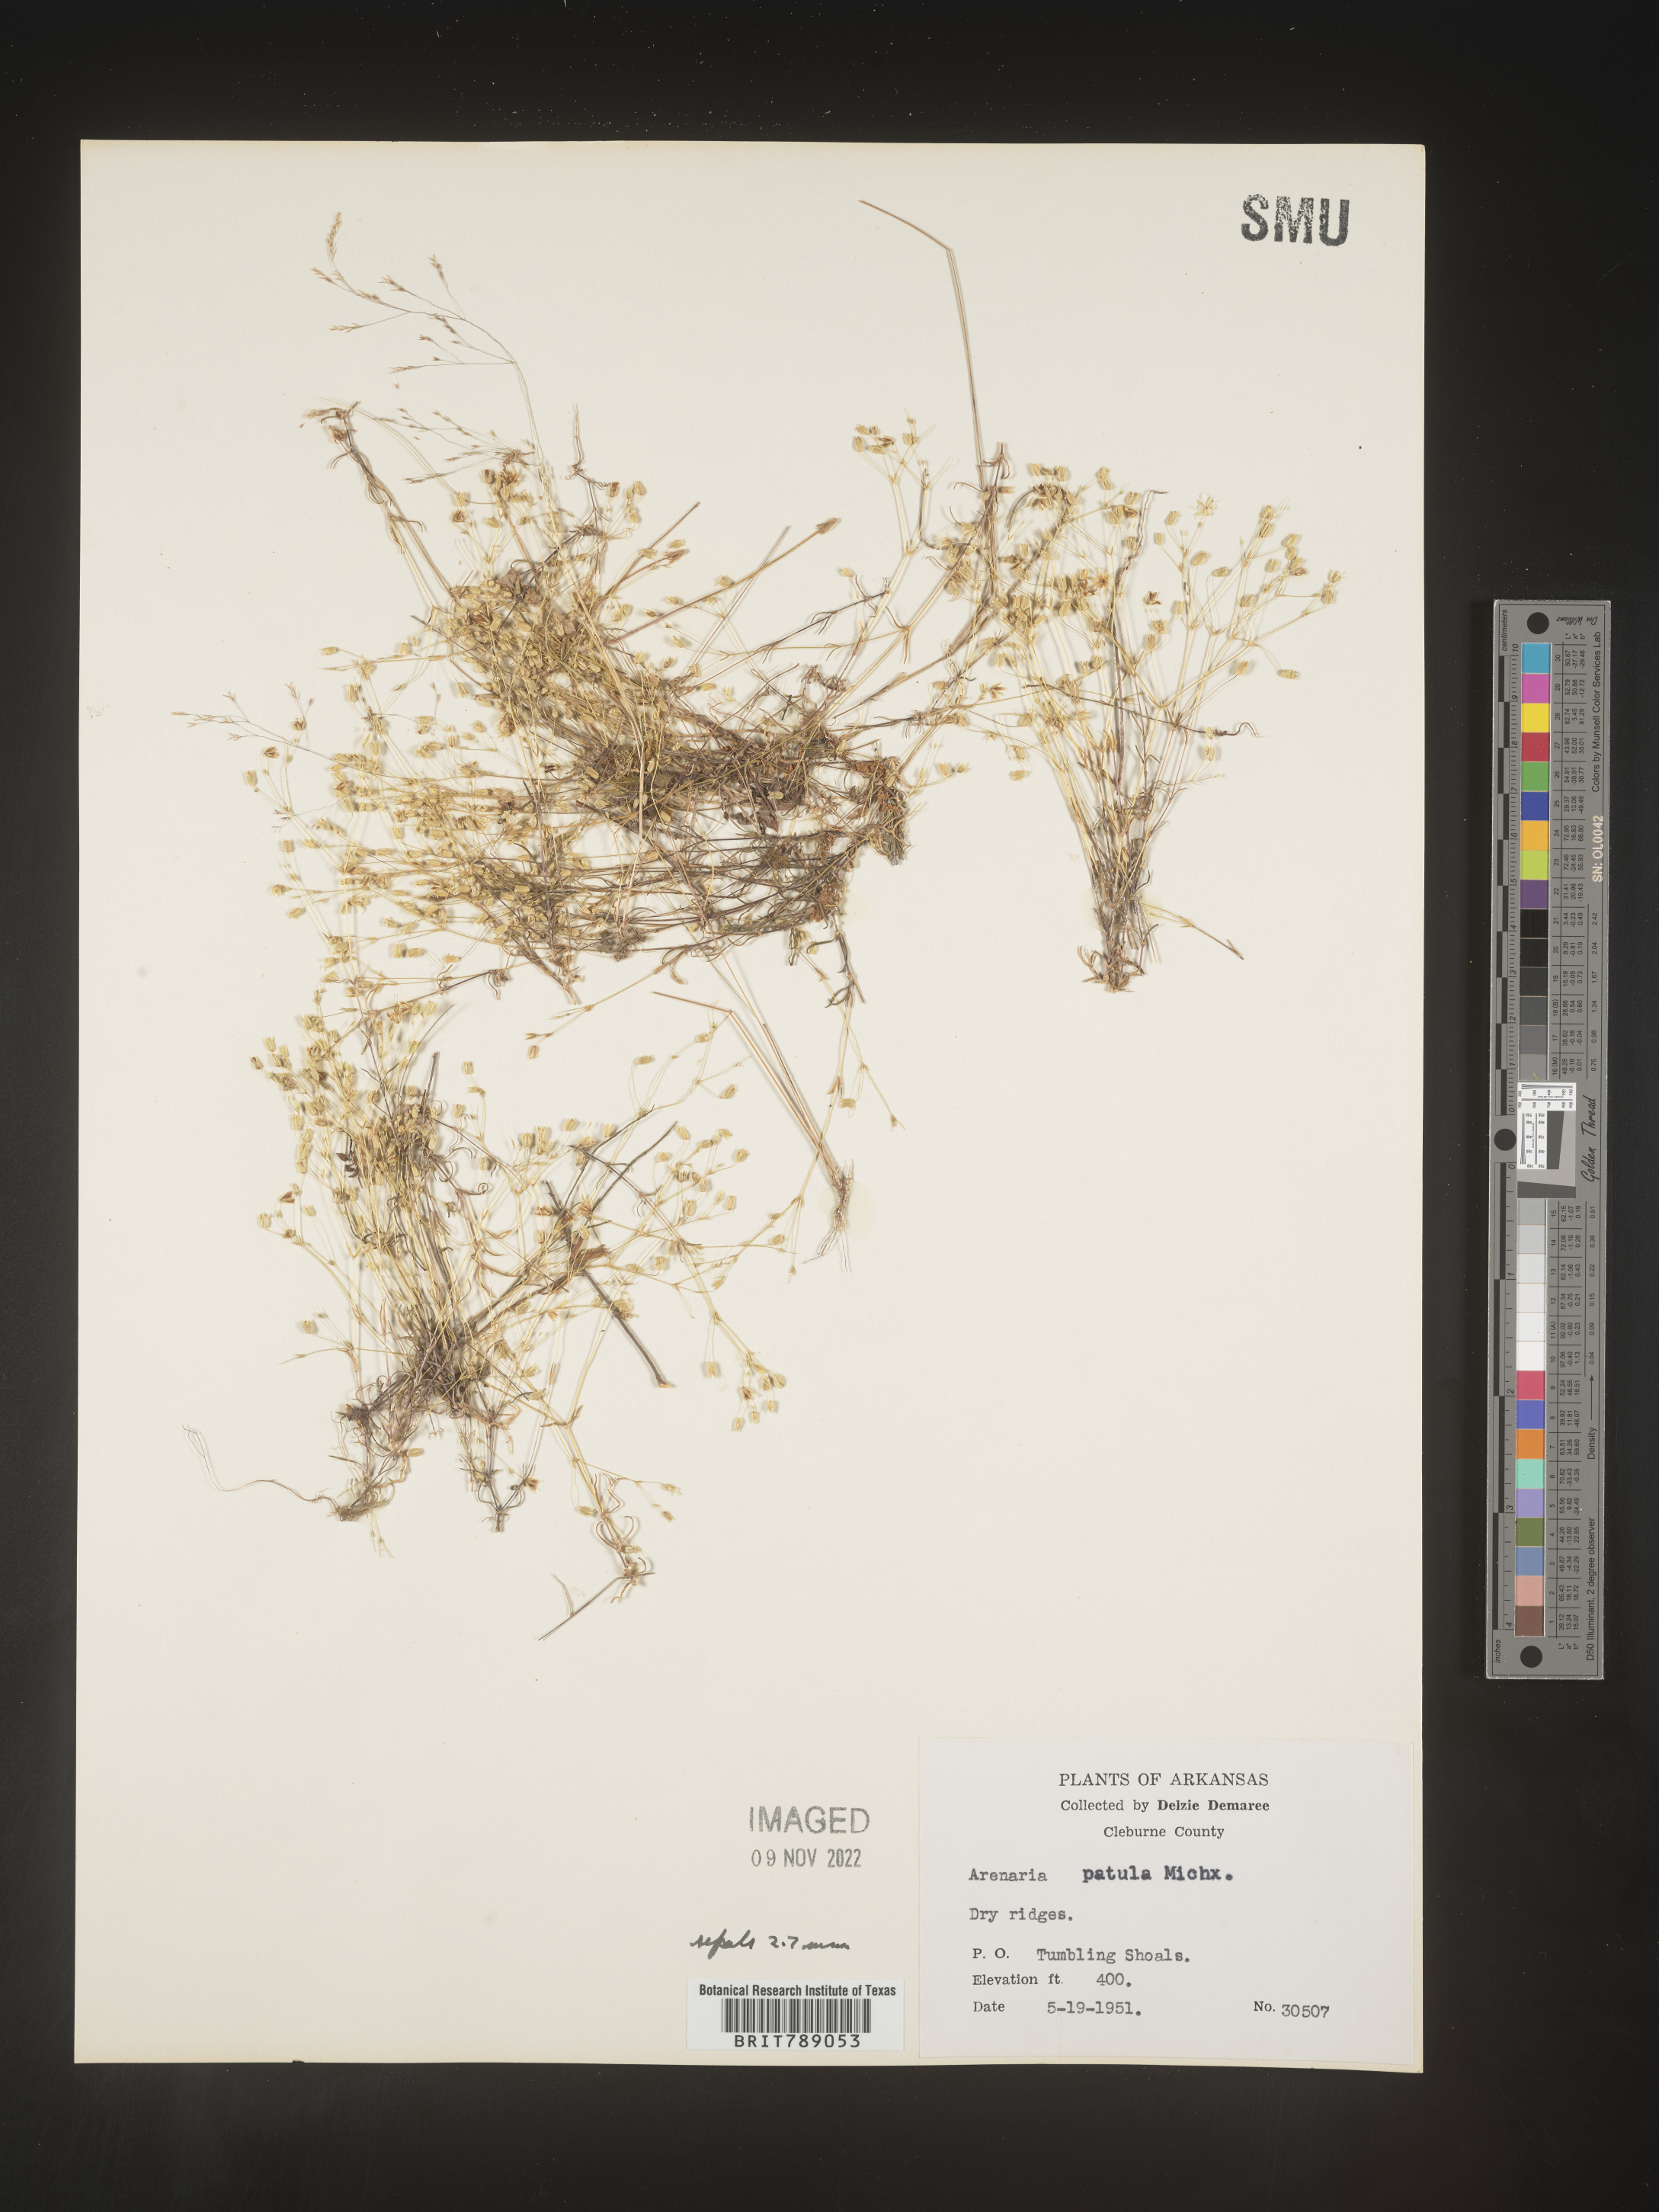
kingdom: Plantae
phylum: Tracheophyta
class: Magnoliopsida
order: Caryophyllales
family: Caryophyllaceae
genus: Mononeuria
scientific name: Mononeuria patula
